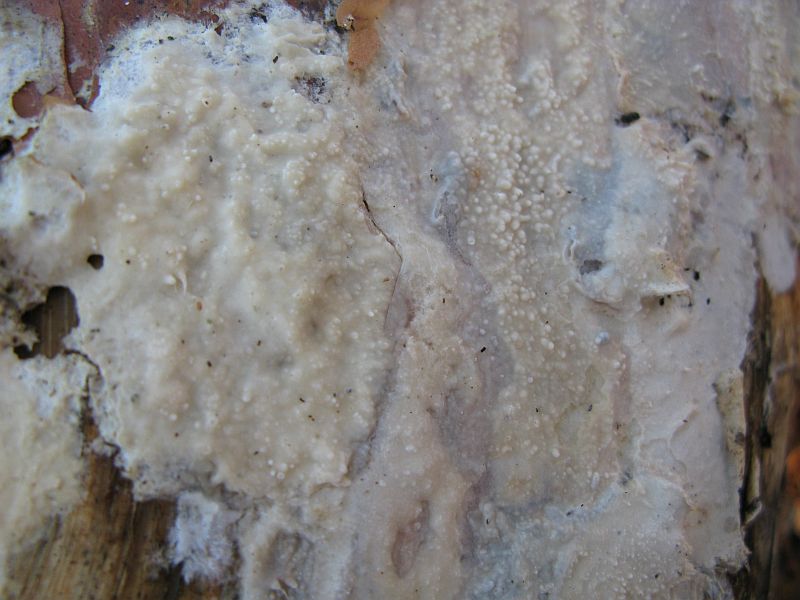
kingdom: Fungi
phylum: Basidiomycota
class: Agaricomycetes
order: Polyporales
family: Phanerochaetaceae
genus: Phlebiopsis
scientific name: Phlebiopsis gigantea
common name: kæmpebarksvamp
